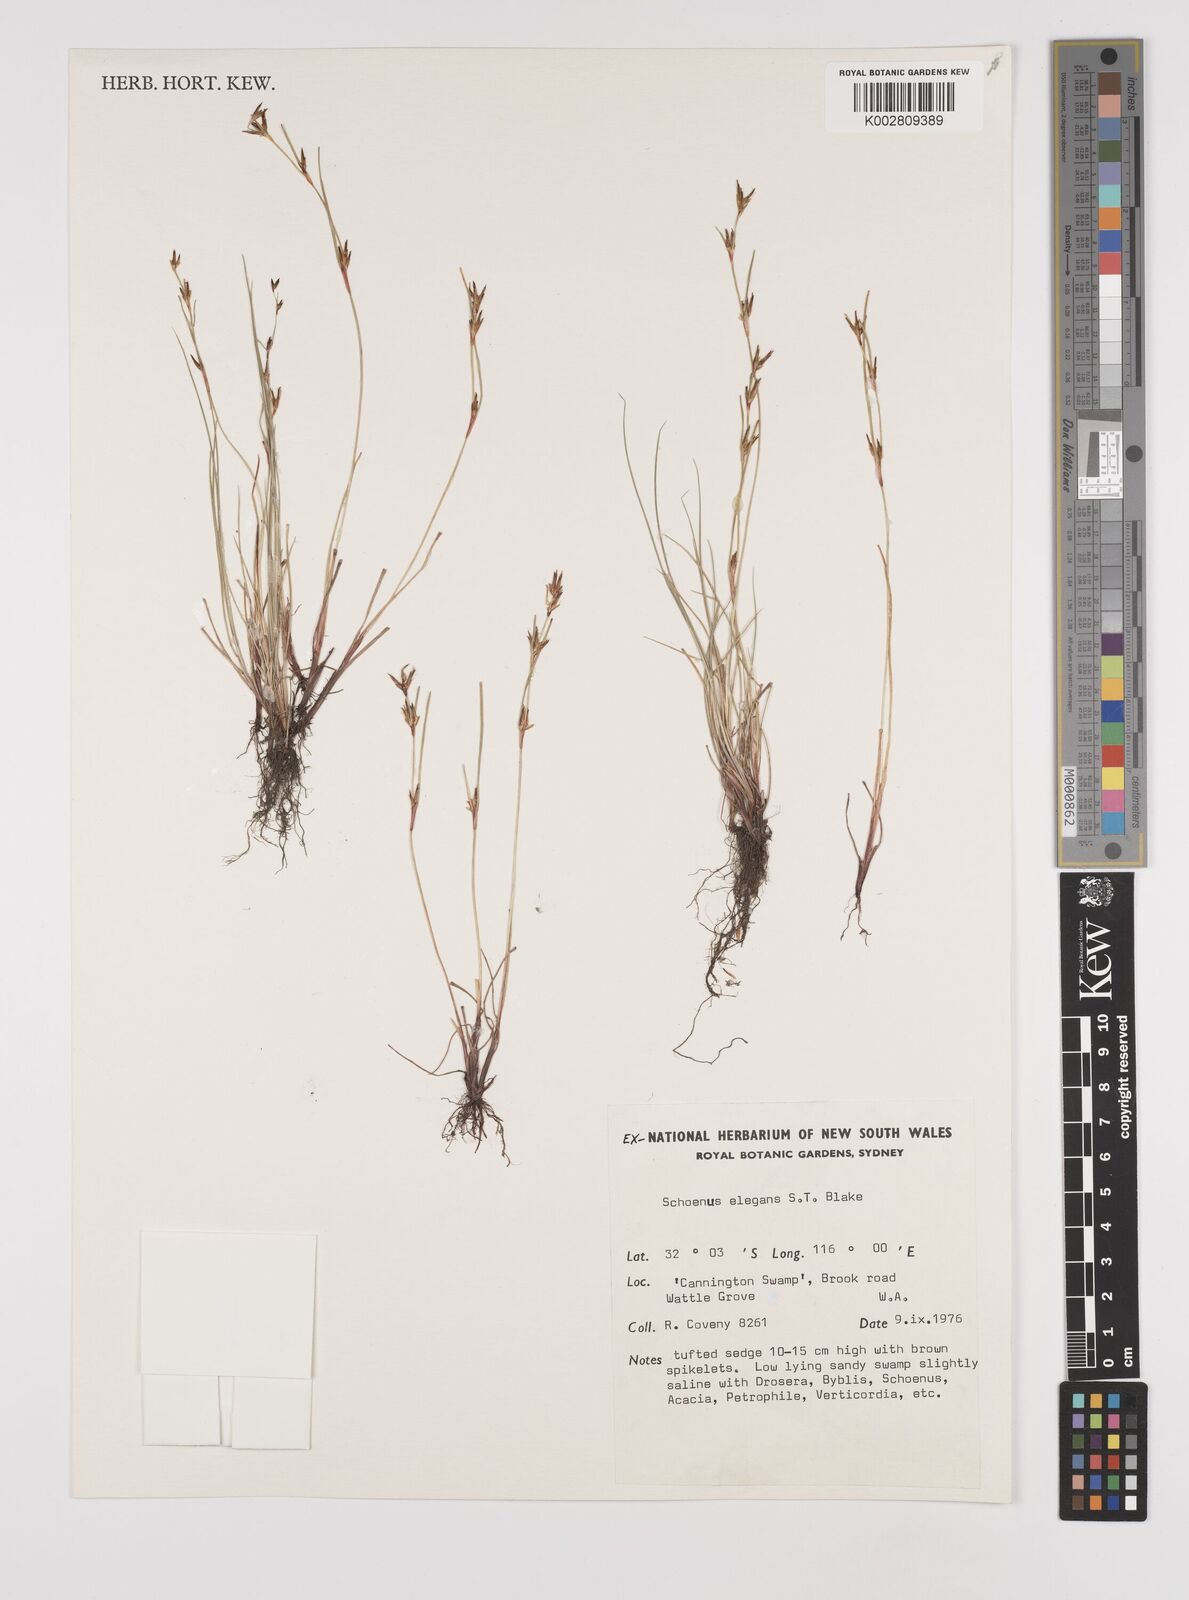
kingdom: Plantae
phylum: Tracheophyta
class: Liliopsida
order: Poales
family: Cyperaceae
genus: Schoenus
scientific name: Schoenus elegans
